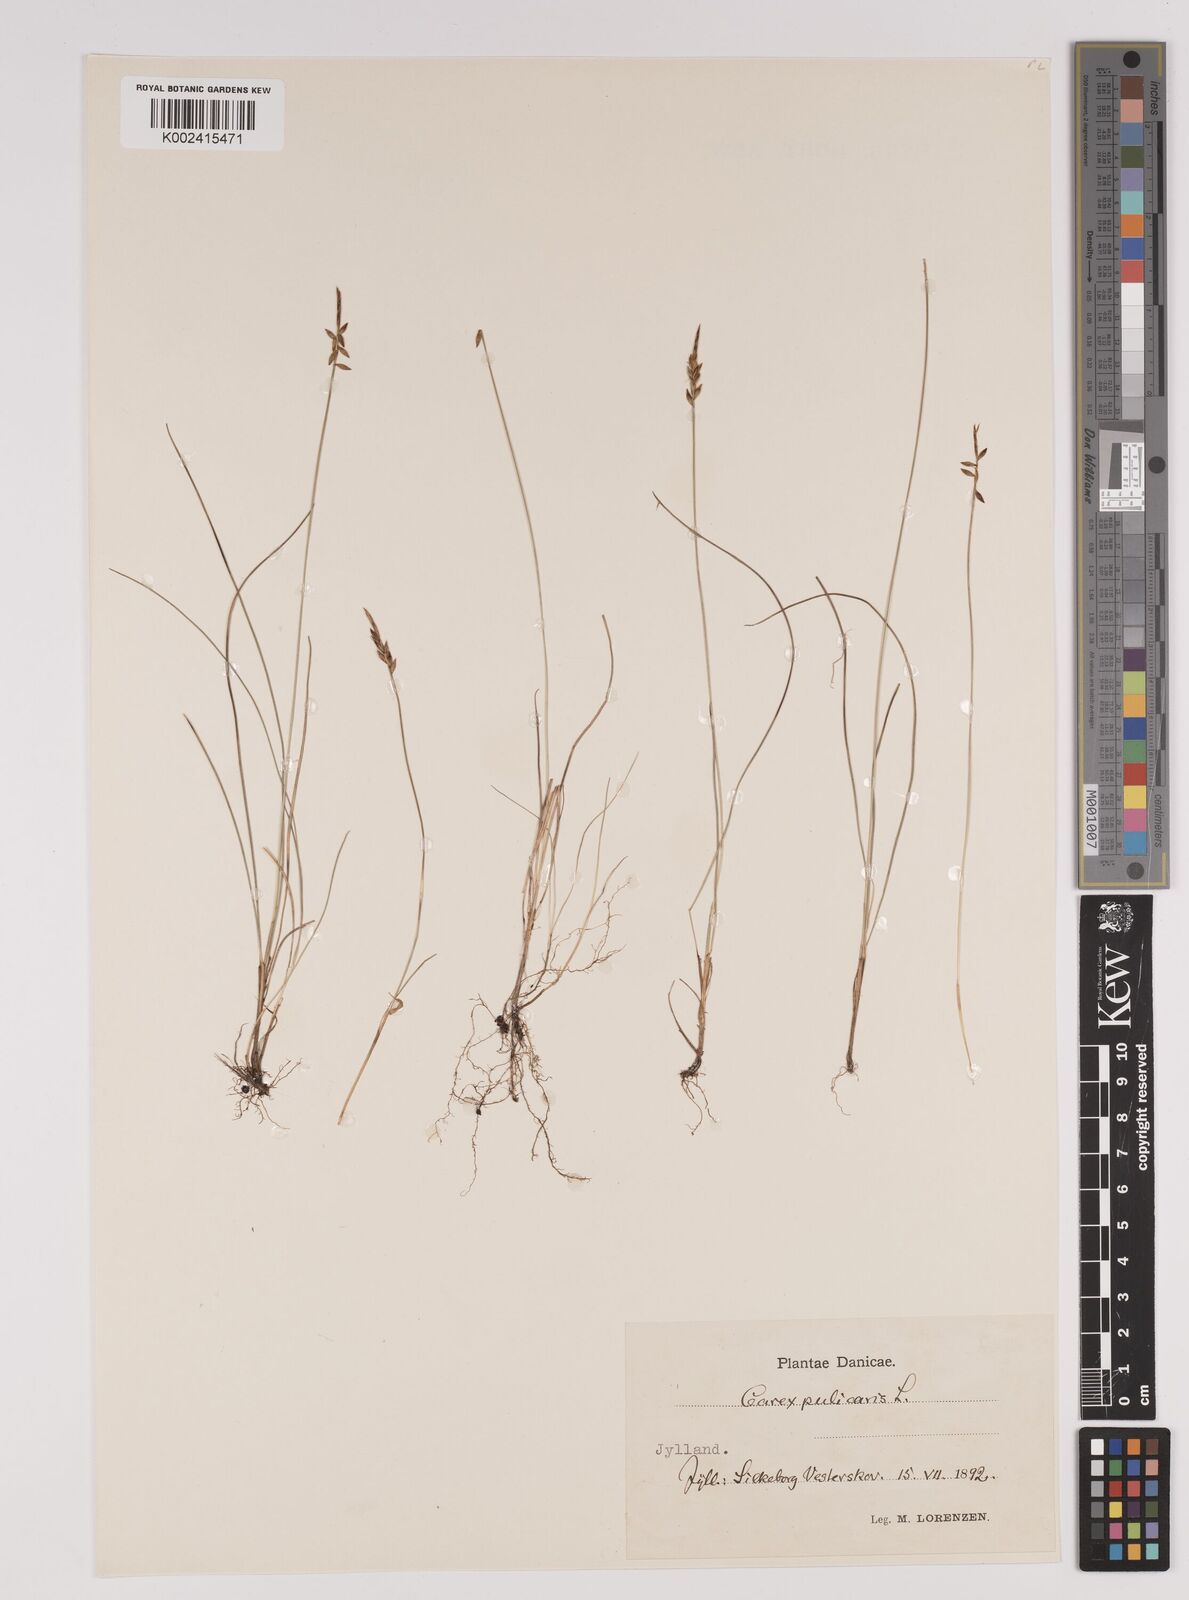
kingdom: Plantae
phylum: Tracheophyta
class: Liliopsida
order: Poales
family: Cyperaceae
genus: Carex
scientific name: Carex pulicaris
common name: Flea sedge
